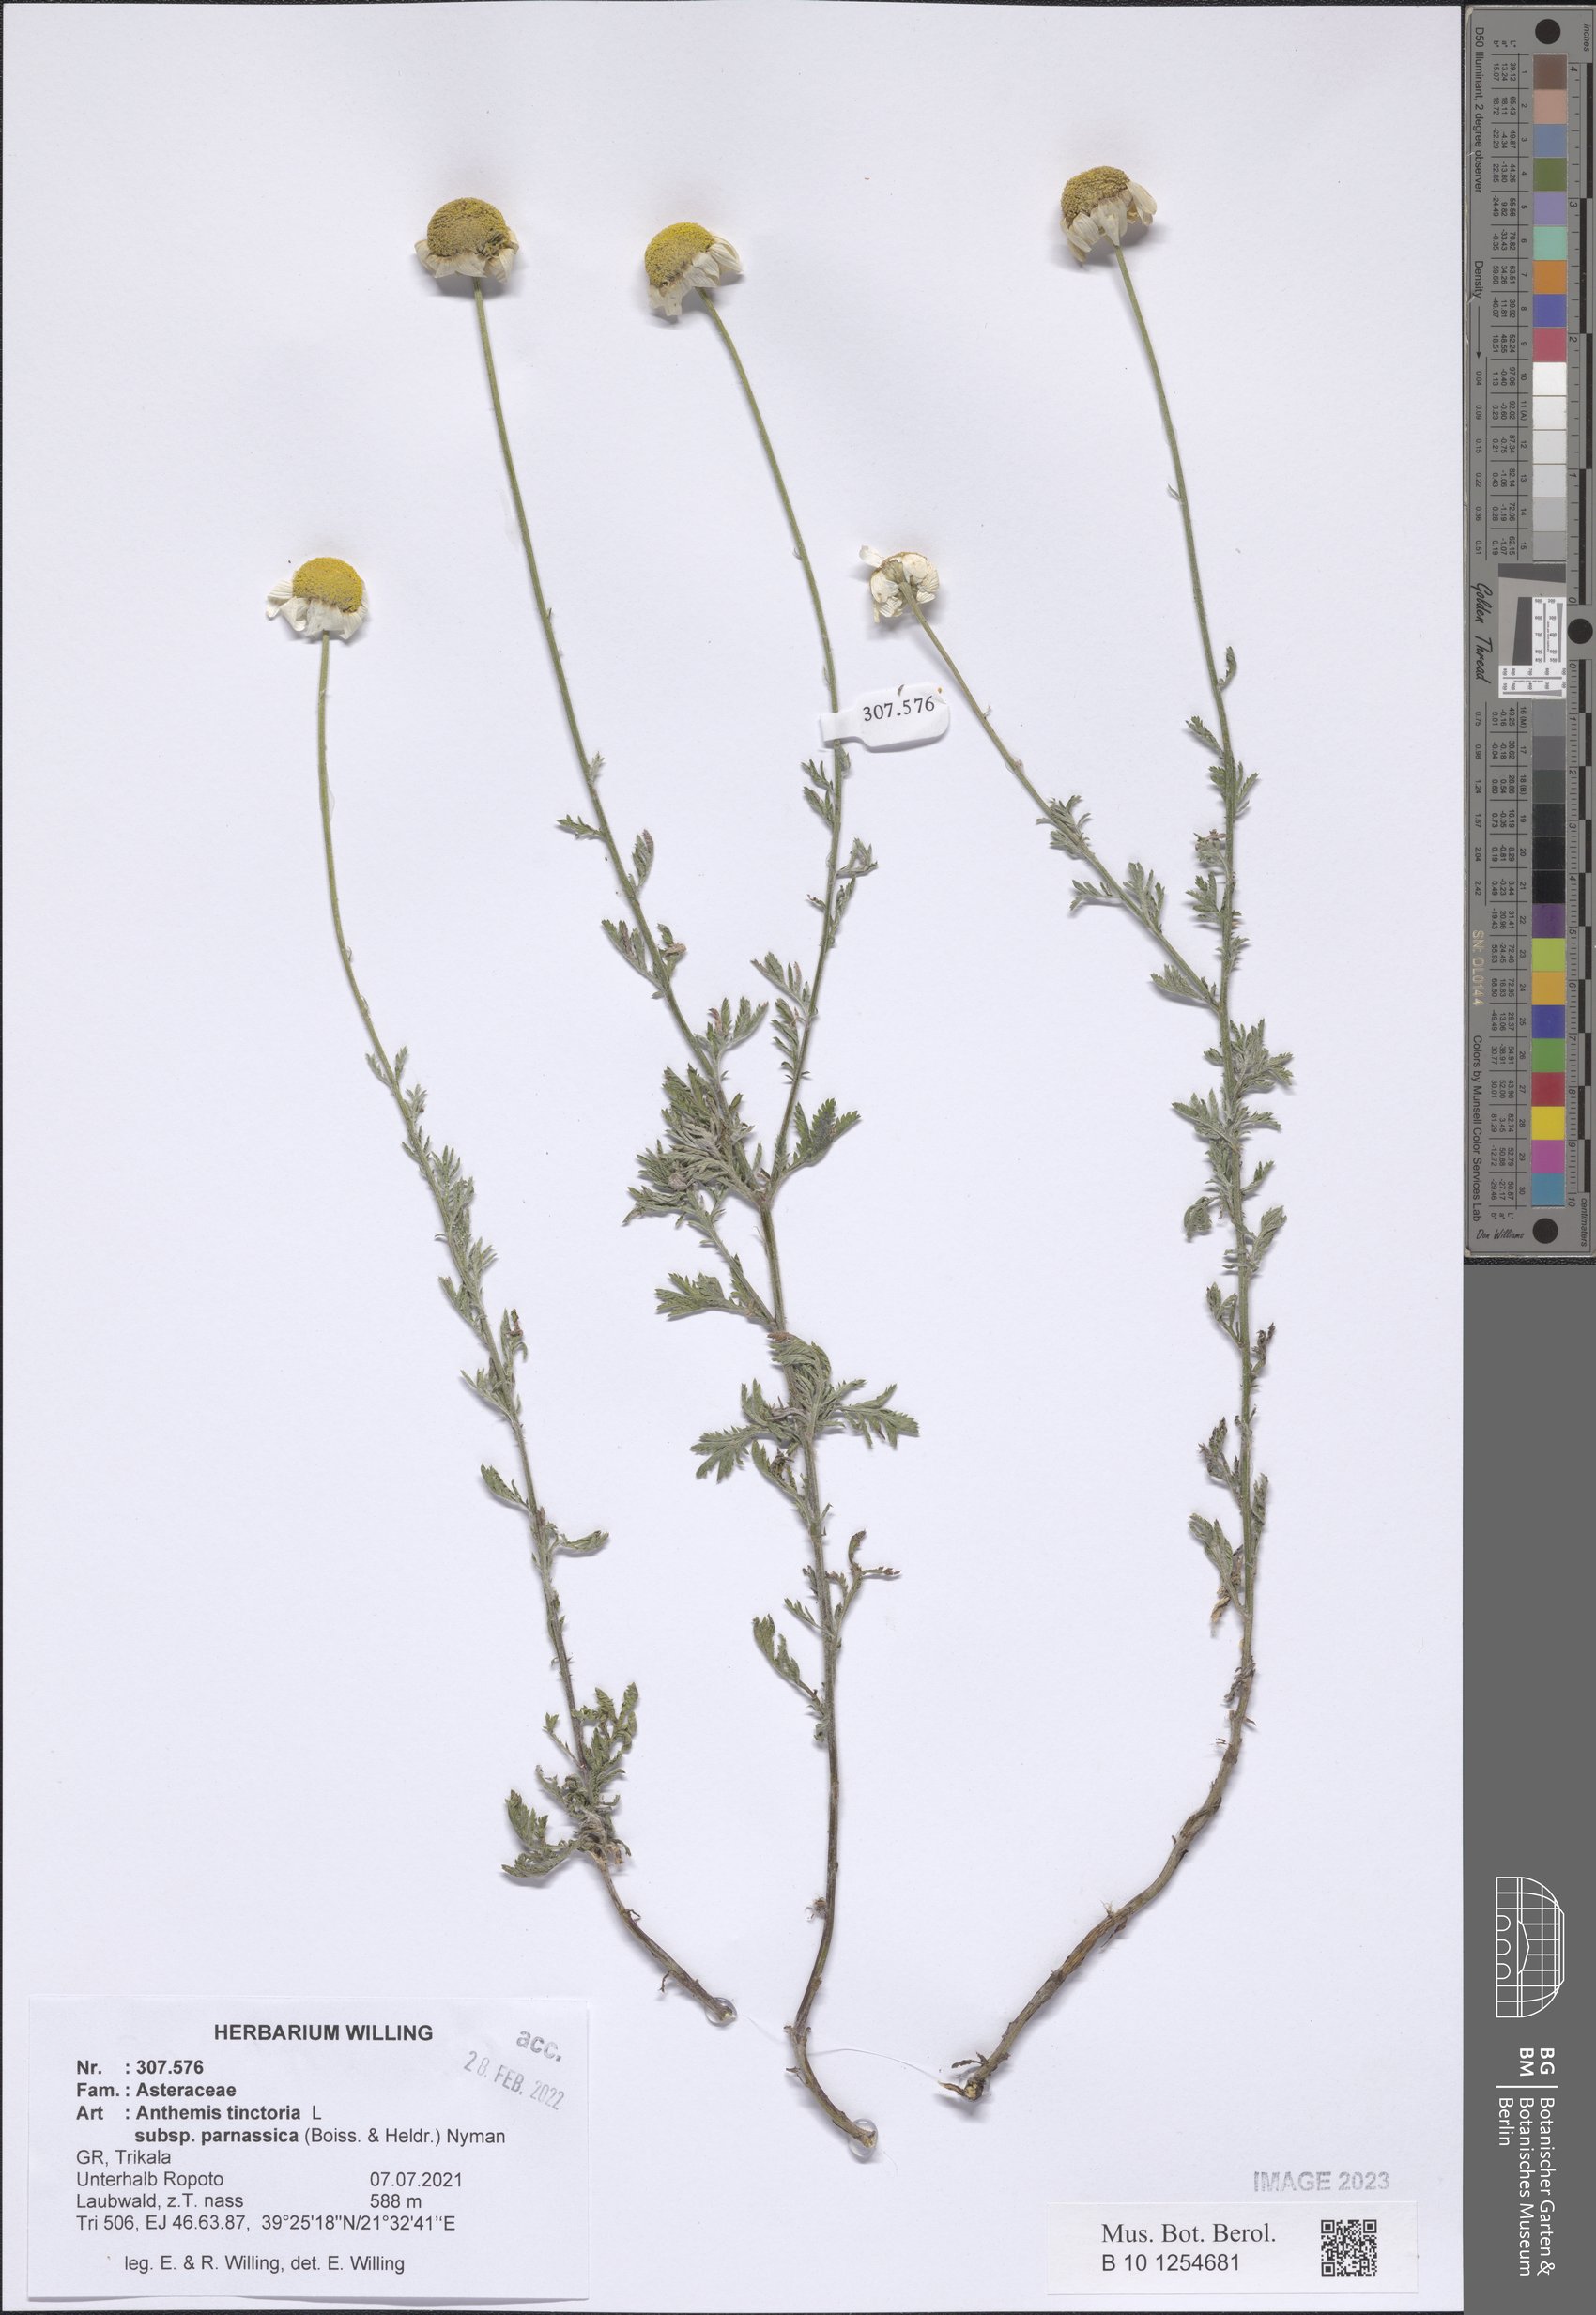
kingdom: Plantae
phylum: Tracheophyta
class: Magnoliopsida
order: Asterales
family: Asteraceae
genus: Cota
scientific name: Cota tinctoria
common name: Golden chamomile
